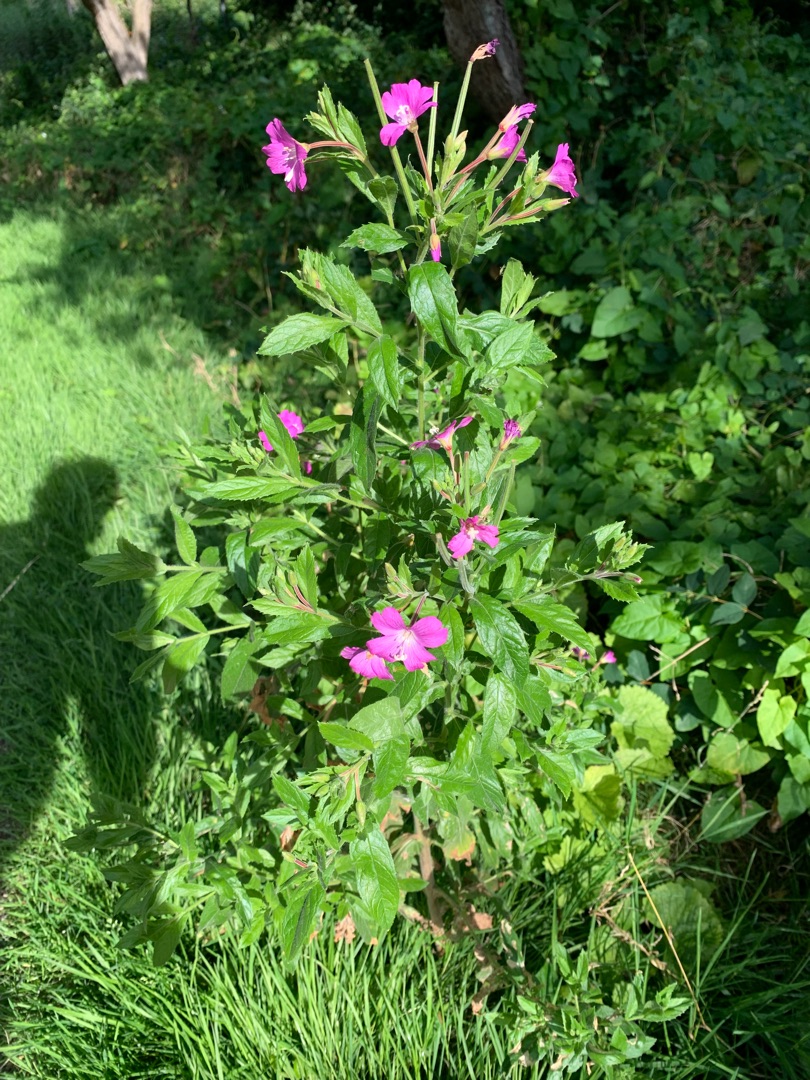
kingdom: Plantae
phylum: Tracheophyta
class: Magnoliopsida
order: Myrtales
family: Onagraceae
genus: Epilobium
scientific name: Epilobium hirsutum
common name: Lådden dueurt
